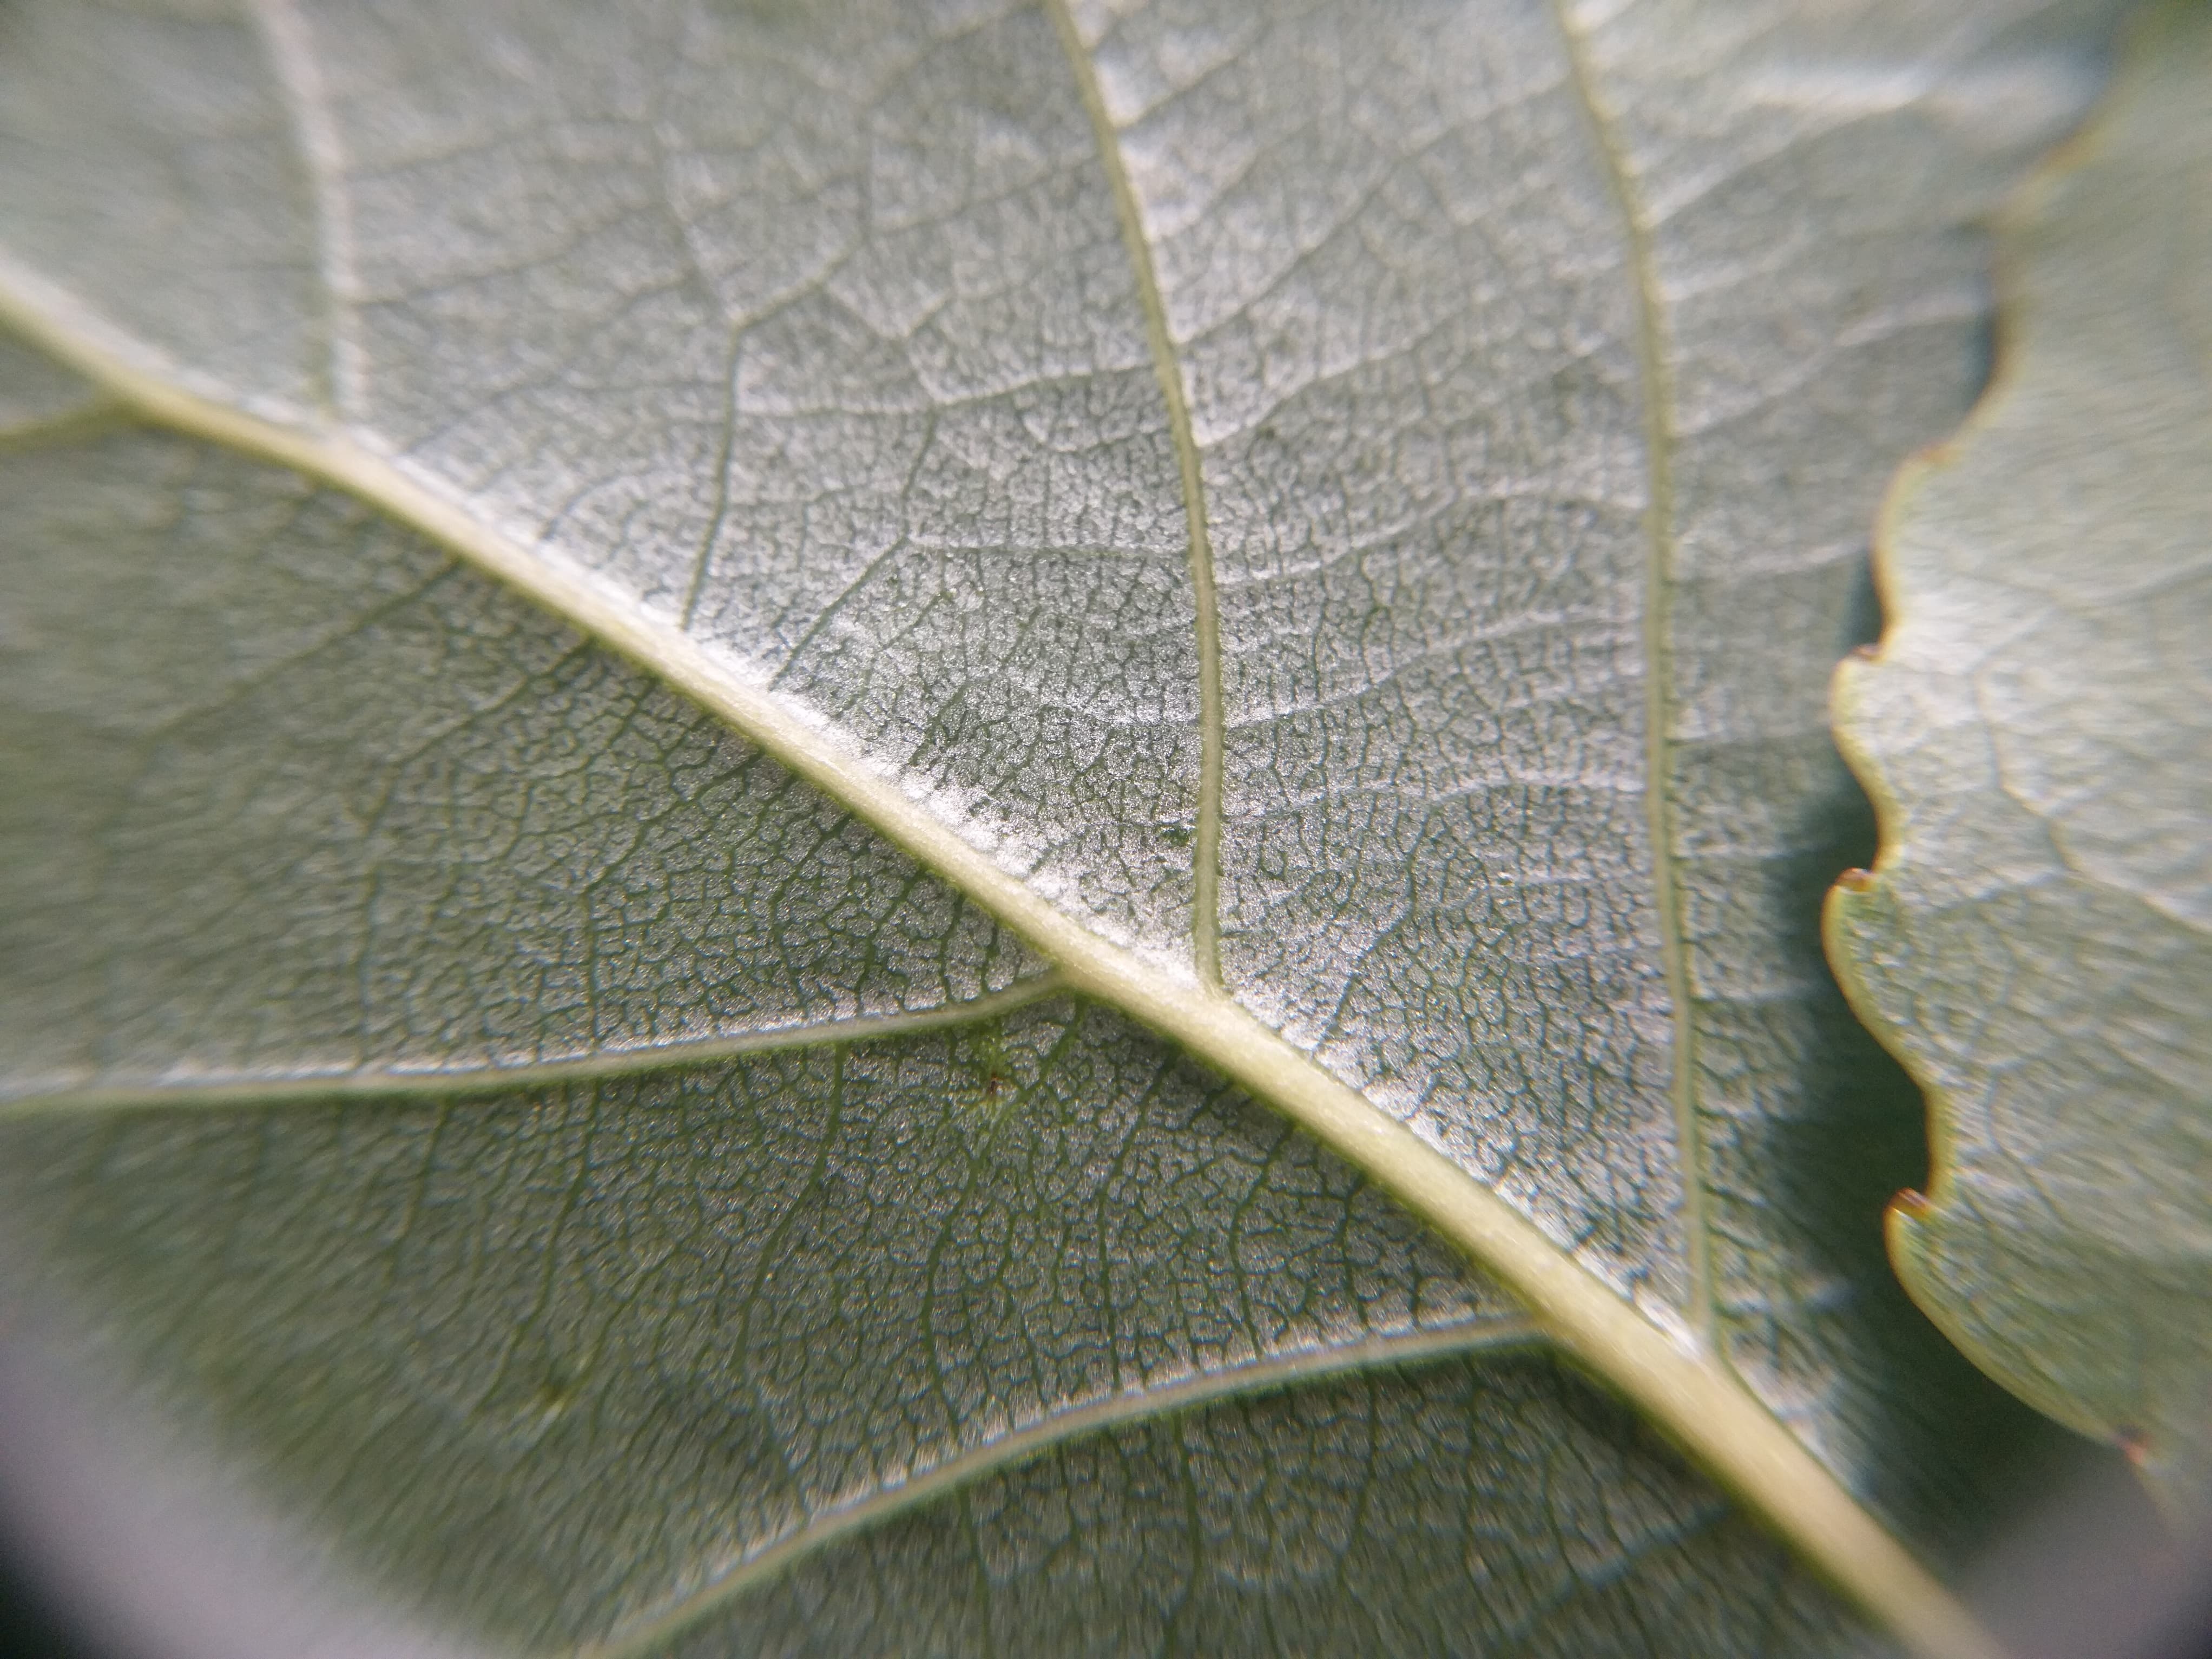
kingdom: Plantae
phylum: Tracheophyta
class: Magnoliopsida
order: Malpighiales
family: Salicaceae
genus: Populus
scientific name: Populus nigra
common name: Sort-poppel
